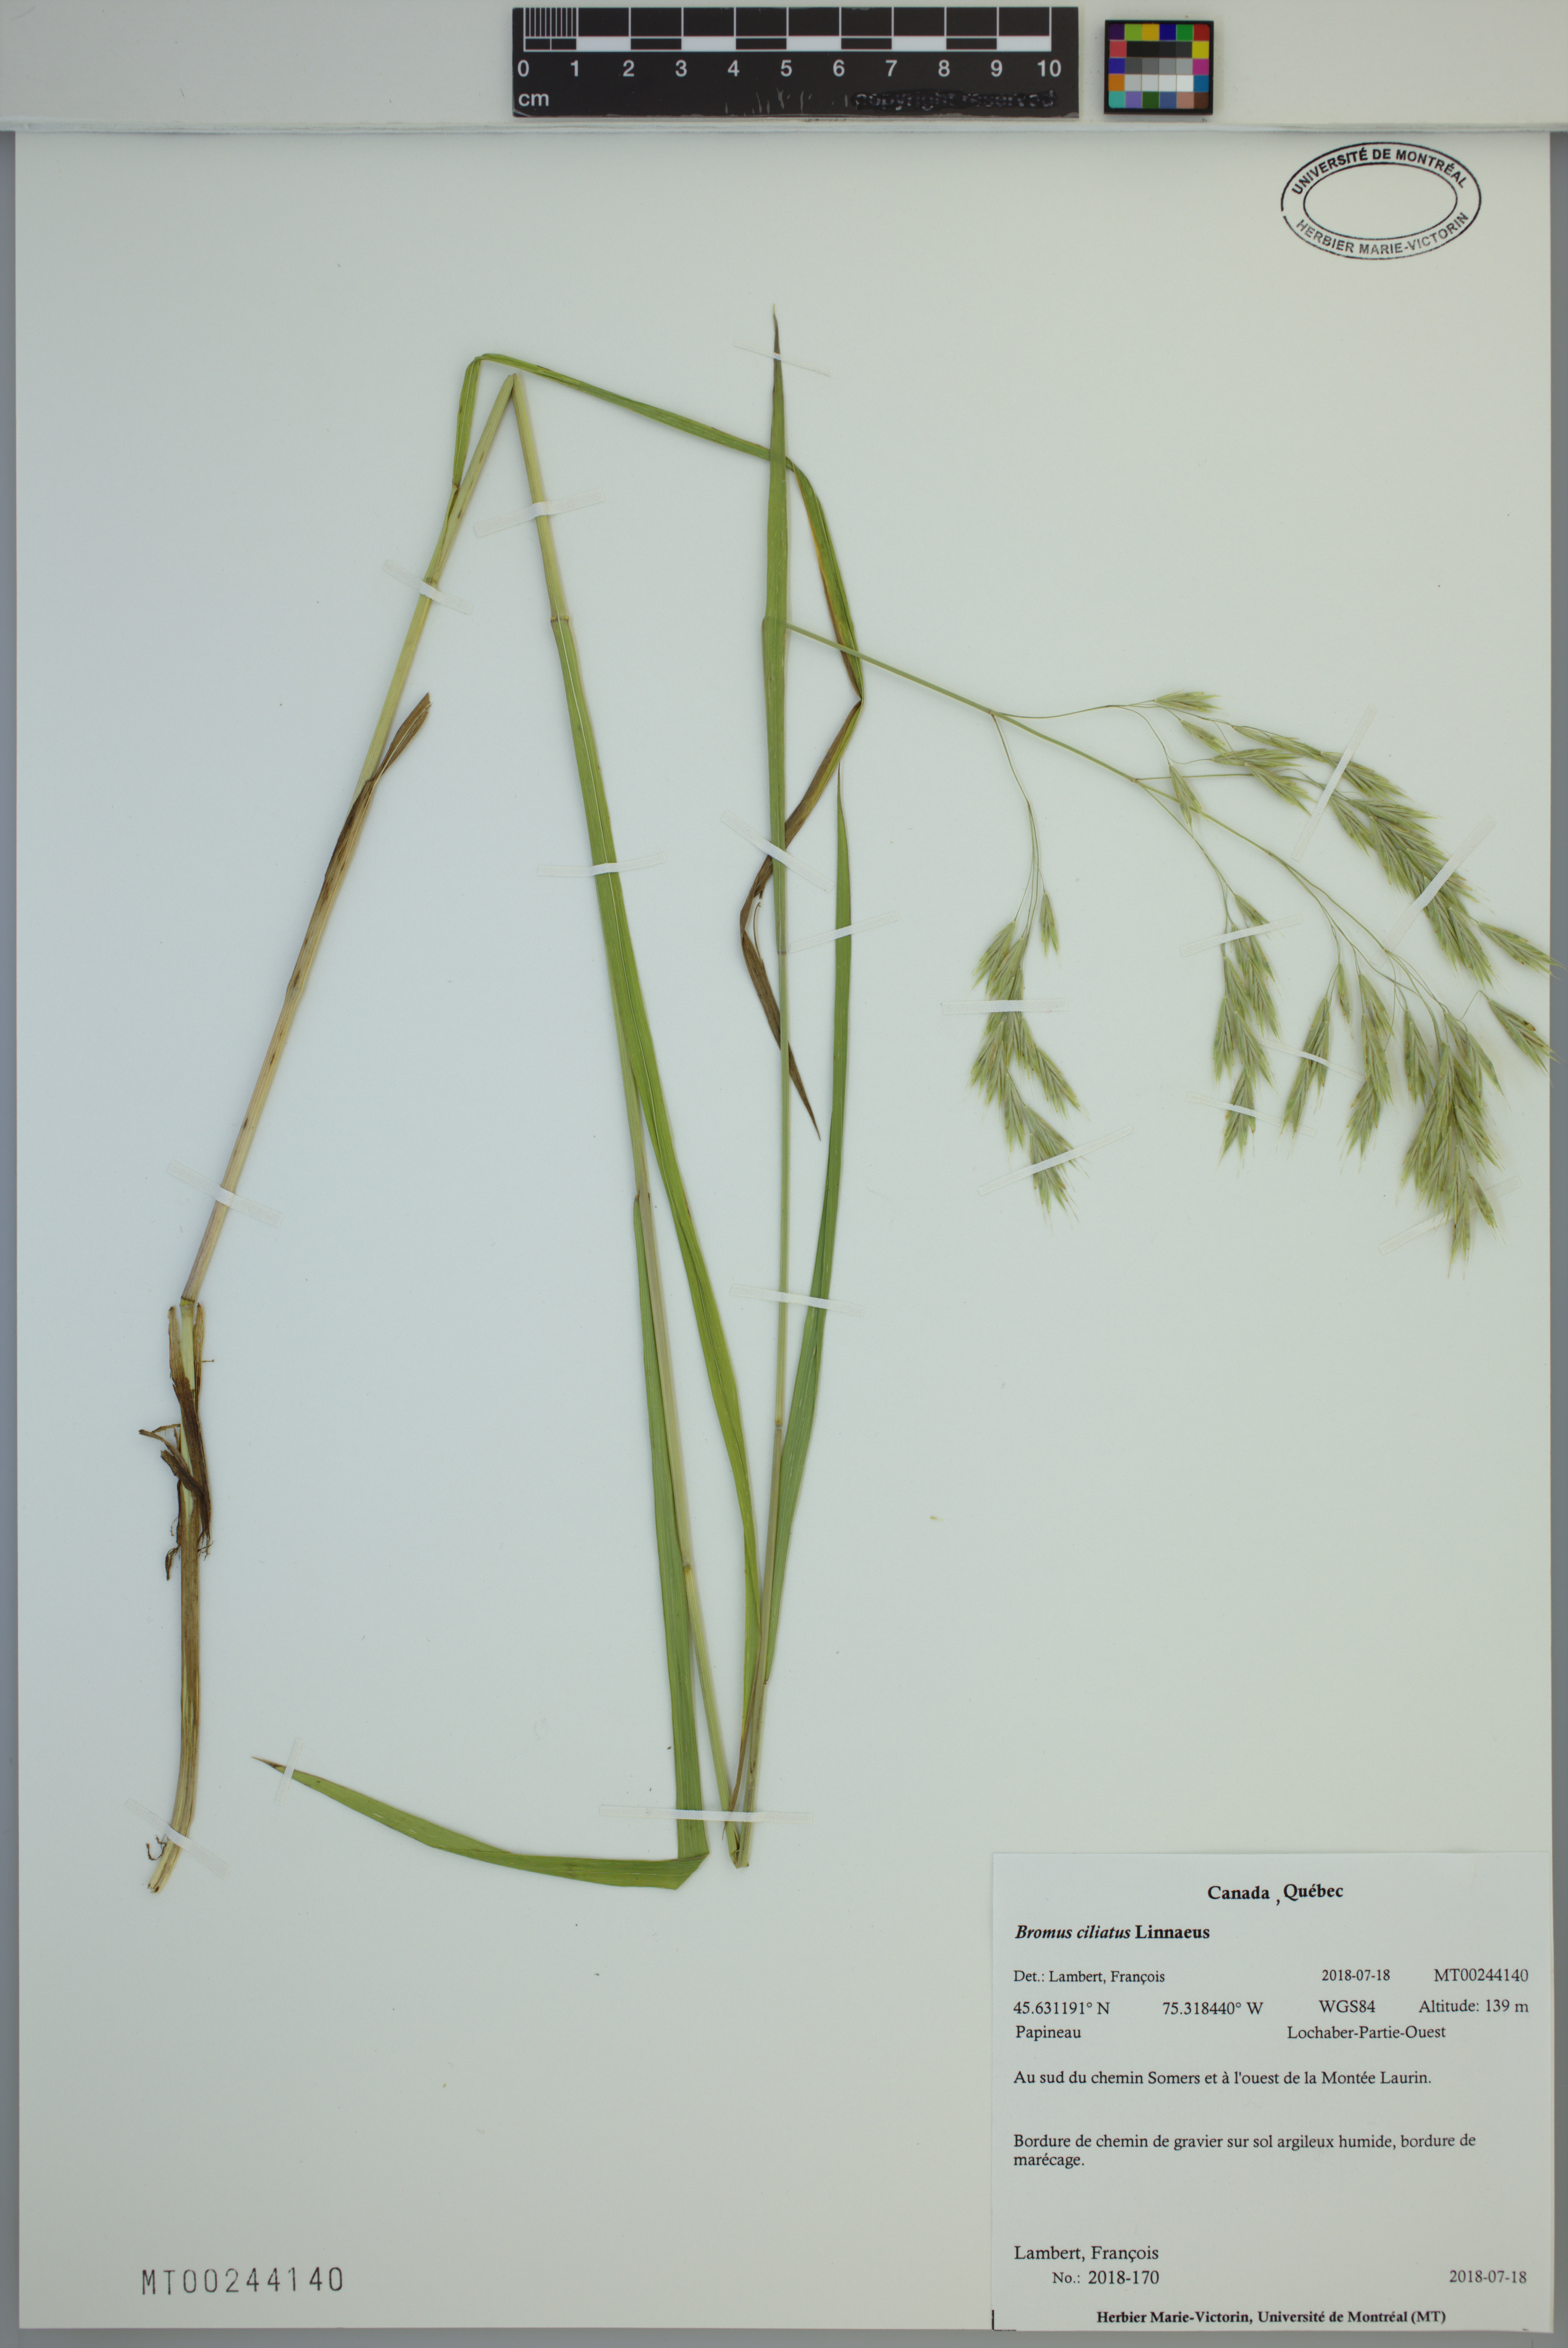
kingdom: Plantae
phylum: Tracheophyta
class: Liliopsida
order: Poales
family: Poaceae
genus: Bromus
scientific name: Bromus ciliatus
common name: Fringe brome
